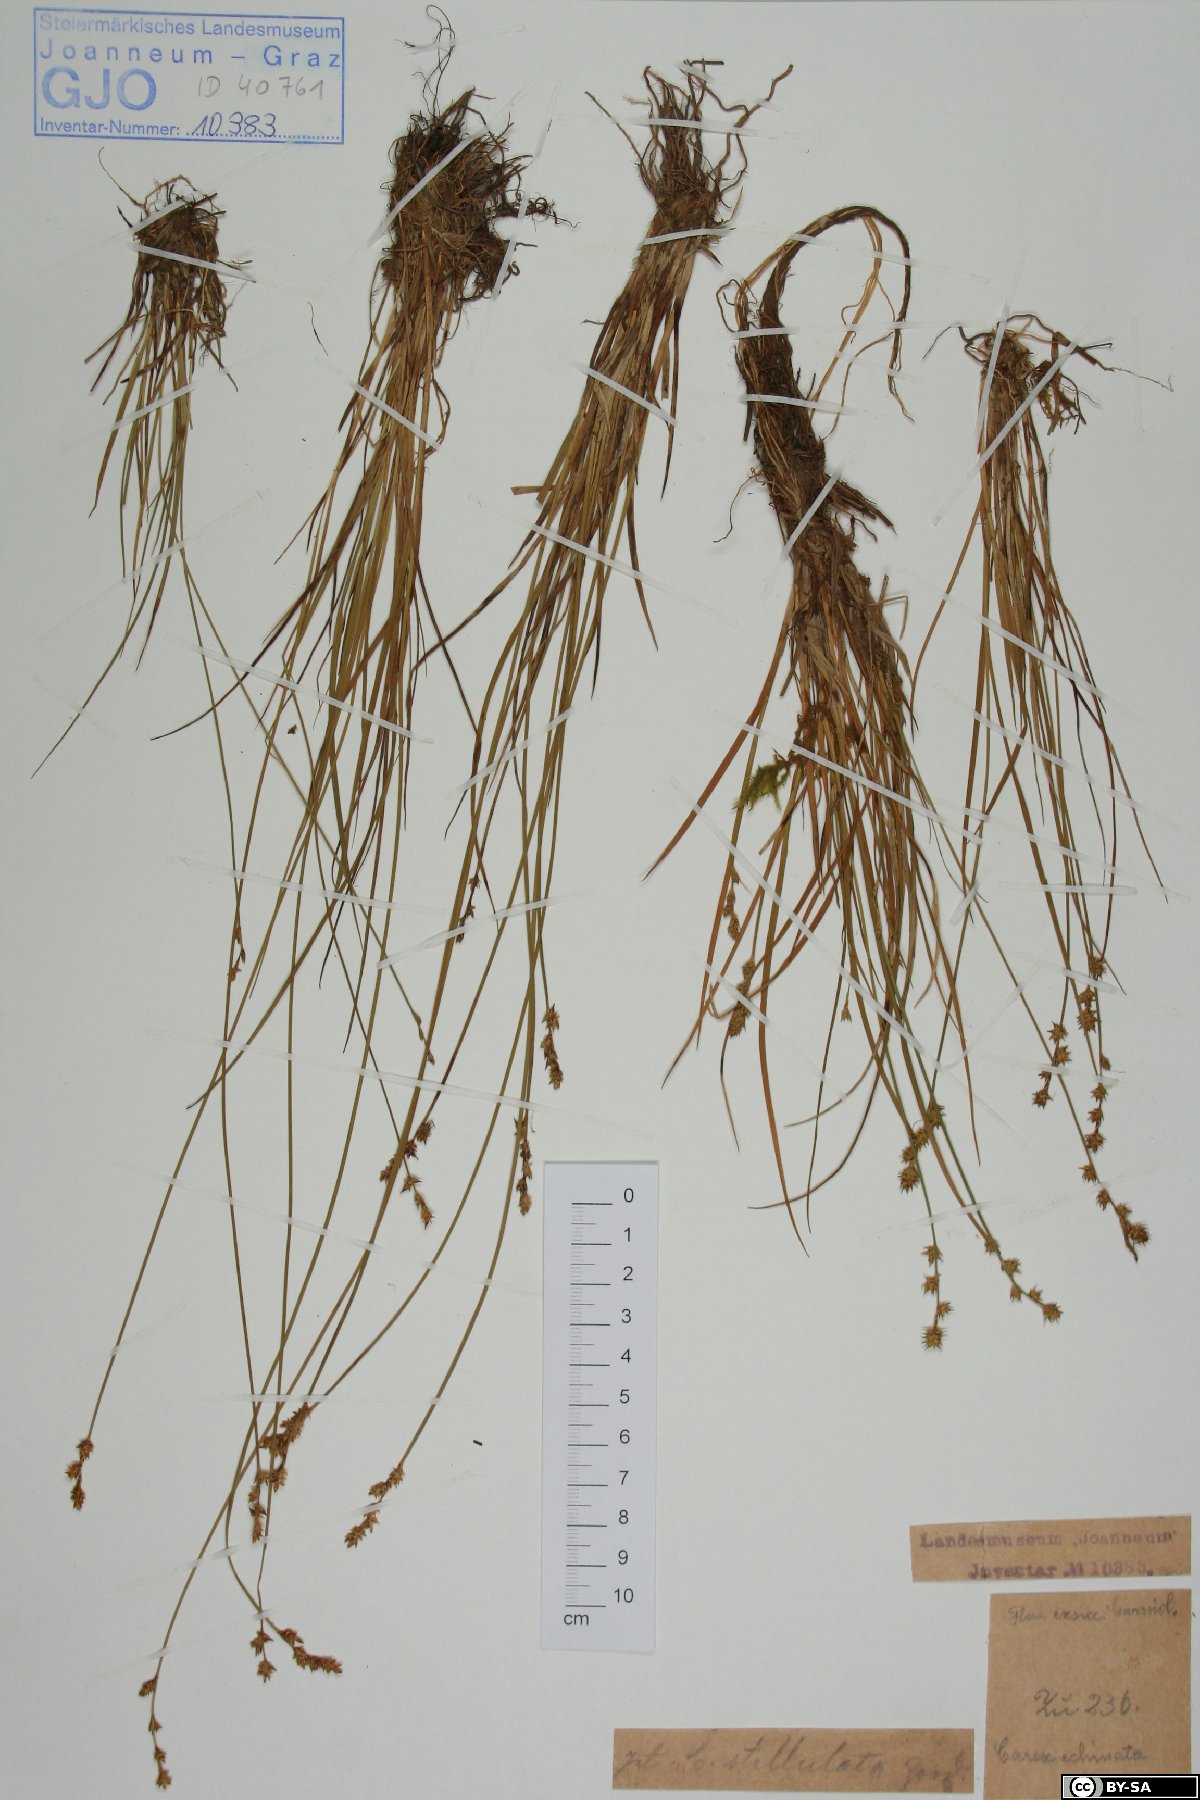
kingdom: Plantae
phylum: Tracheophyta
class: Liliopsida
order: Poales
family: Cyperaceae
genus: Carex
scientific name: Carex echinata
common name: Star sedge
